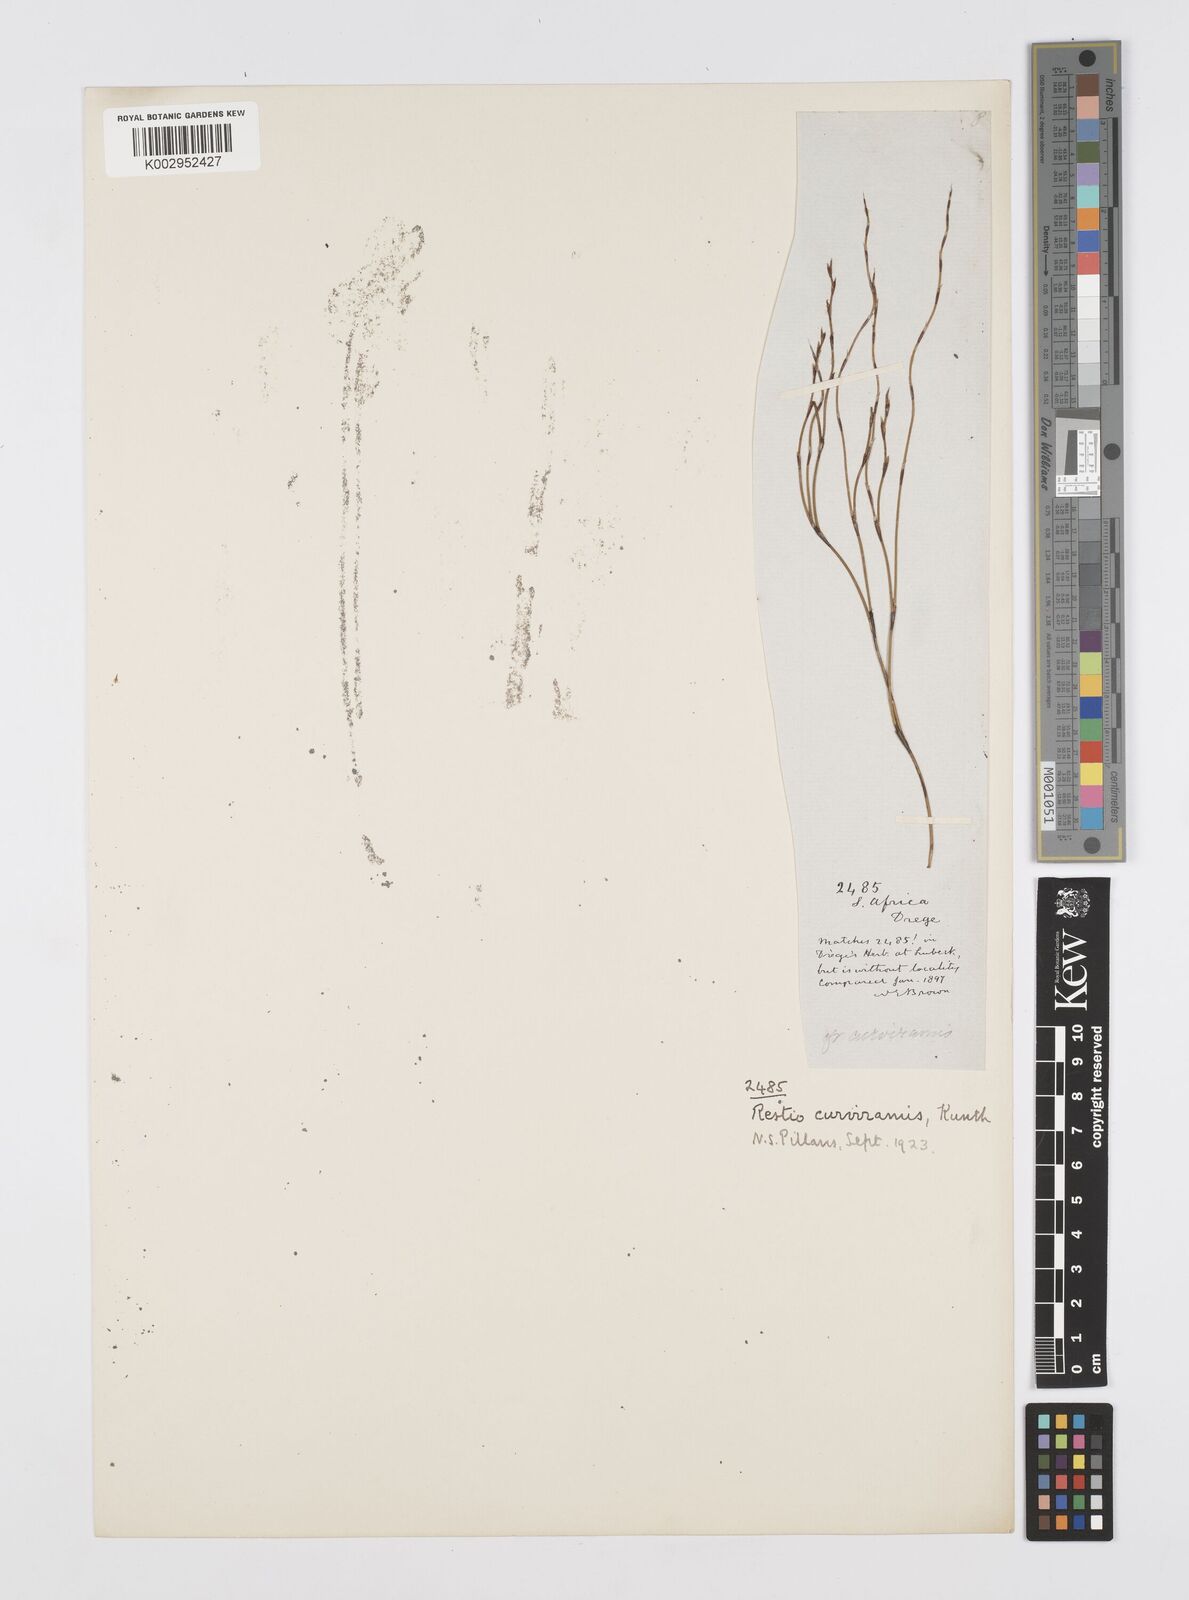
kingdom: Plantae
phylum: Tracheophyta
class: Liliopsida
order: Poales
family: Restionaceae
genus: Restio
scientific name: Restio curviramis
